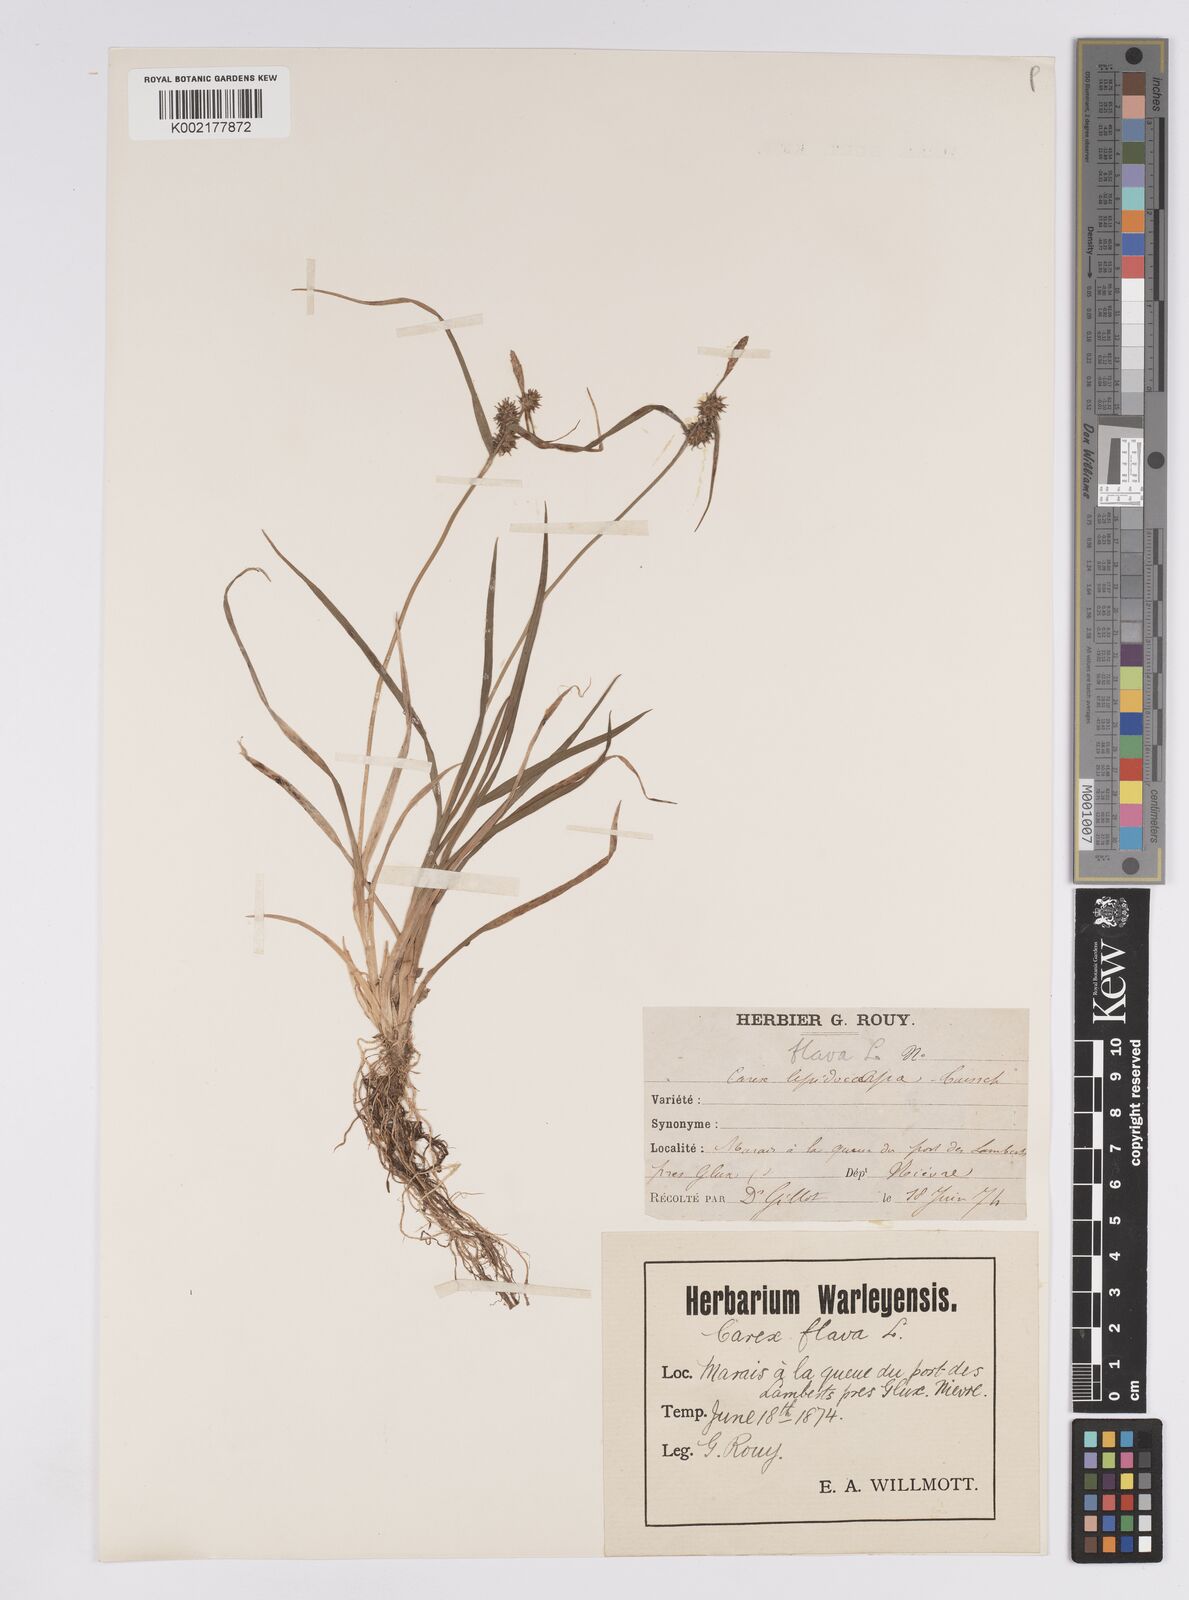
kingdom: Plantae
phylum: Tracheophyta
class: Liliopsida
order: Poales
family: Cyperaceae
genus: Carex
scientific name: Carex flava
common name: Large yellow-sedge
